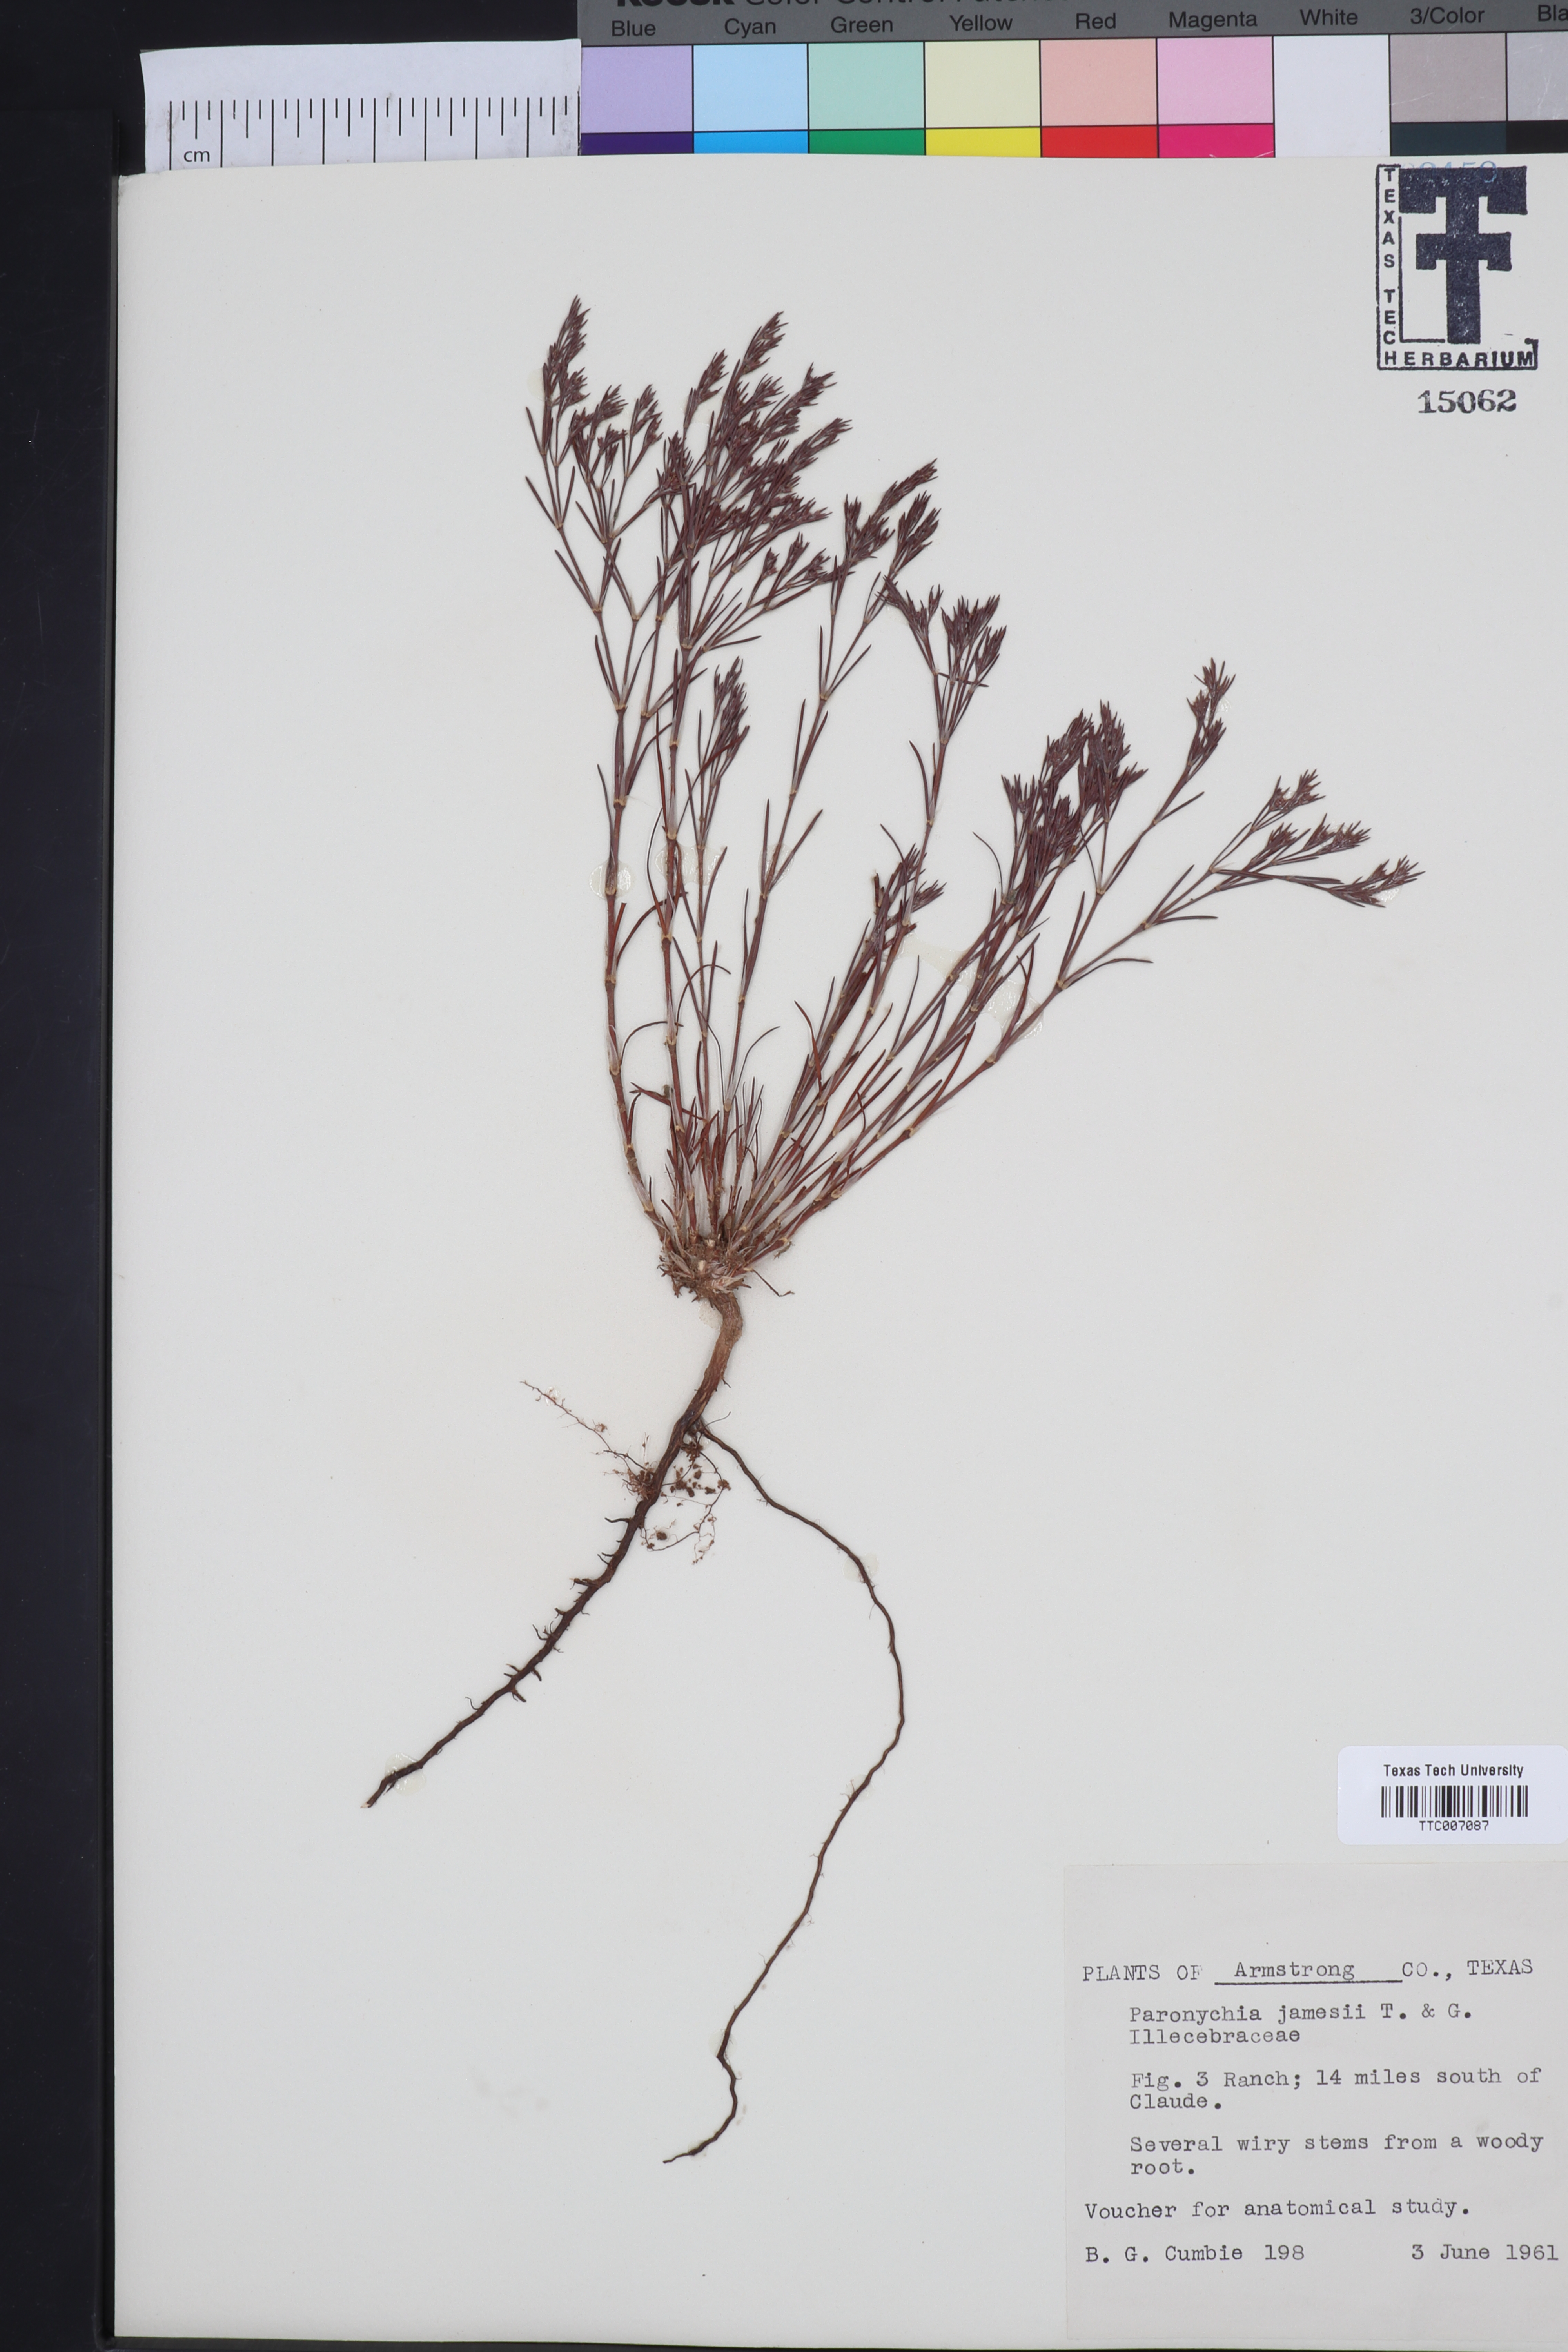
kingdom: Plantae
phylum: Tracheophyta
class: Magnoliopsida
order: Caryophyllales
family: Caryophyllaceae
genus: Paronychia
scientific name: Paronychia jamesii
